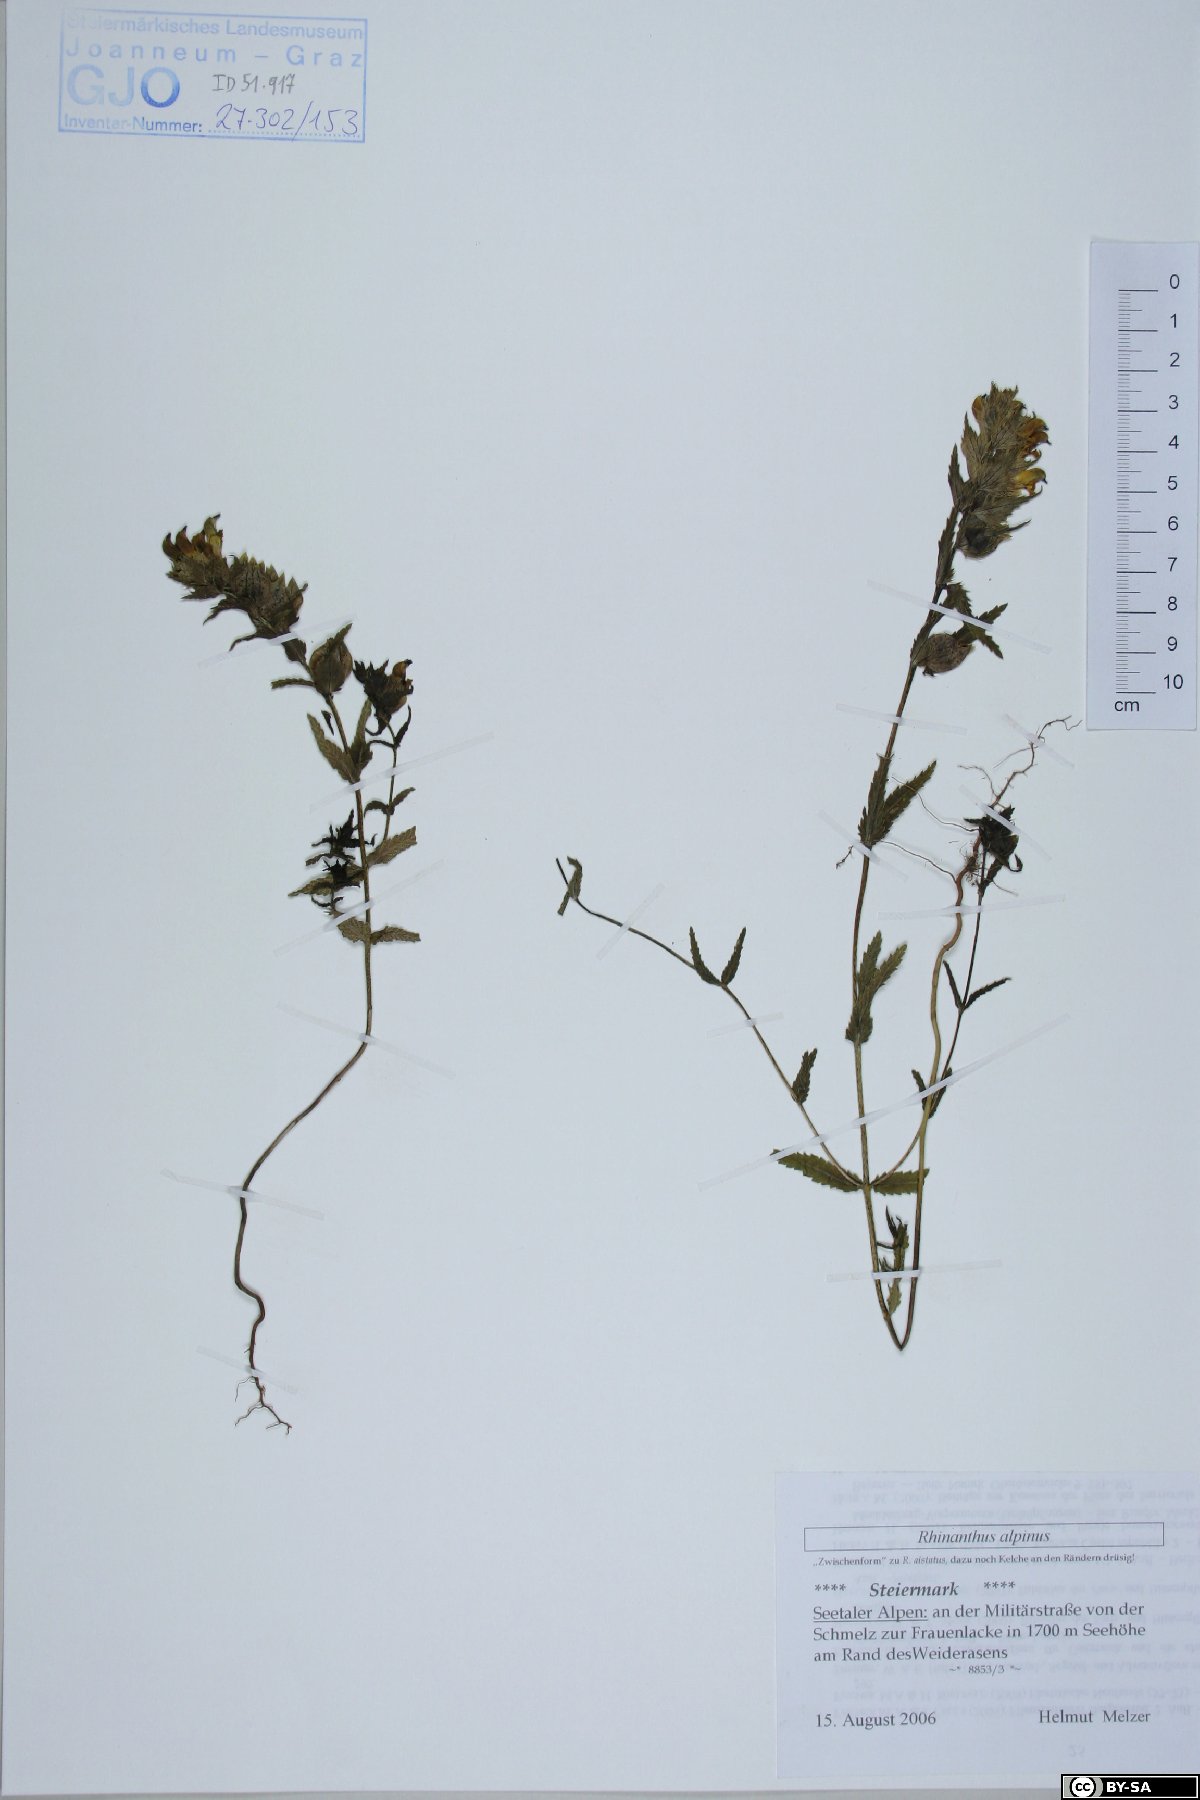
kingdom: Plantae
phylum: Tracheophyta
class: Magnoliopsida
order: Lamiales
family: Orobanchaceae
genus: Rhinanthus
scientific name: Rhinanthus riphaeus
